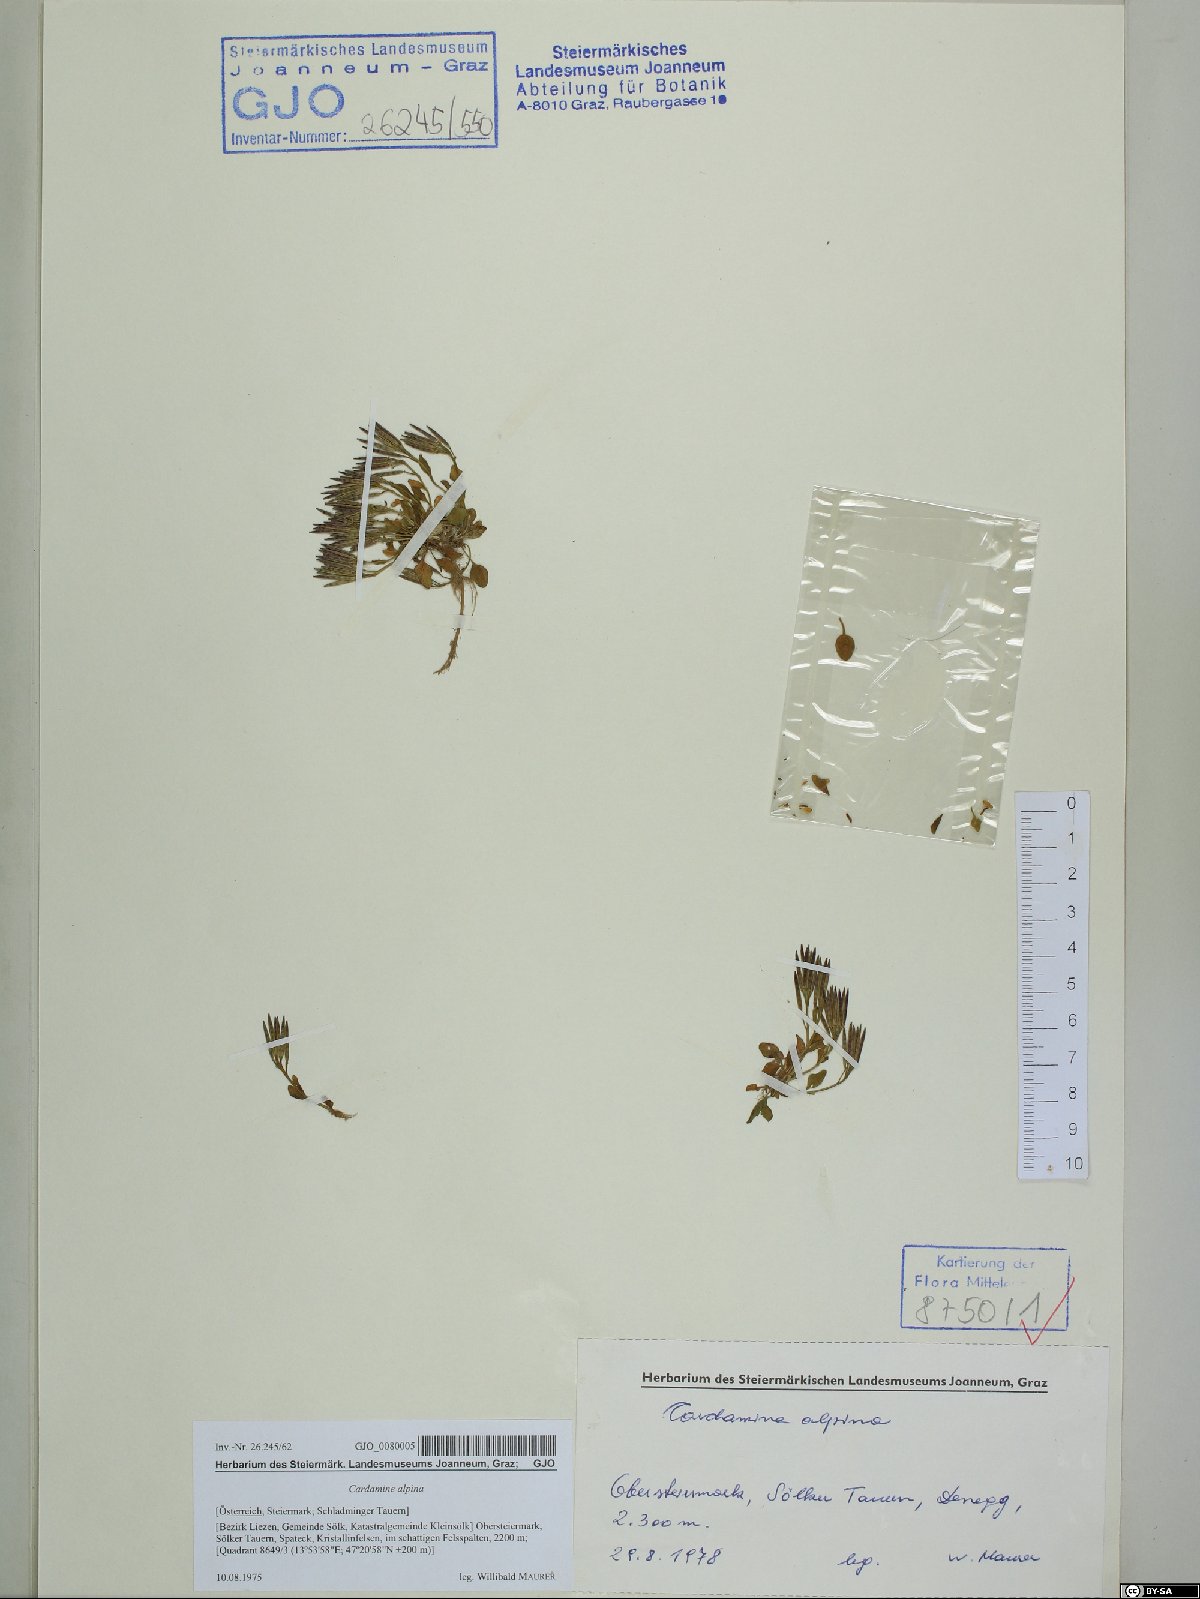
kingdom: Plantae
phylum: Tracheophyta
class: Magnoliopsida
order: Brassicales
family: Brassicaceae
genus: Cardamine
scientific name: Cardamine bellidifolia
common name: Alpine bittercress
